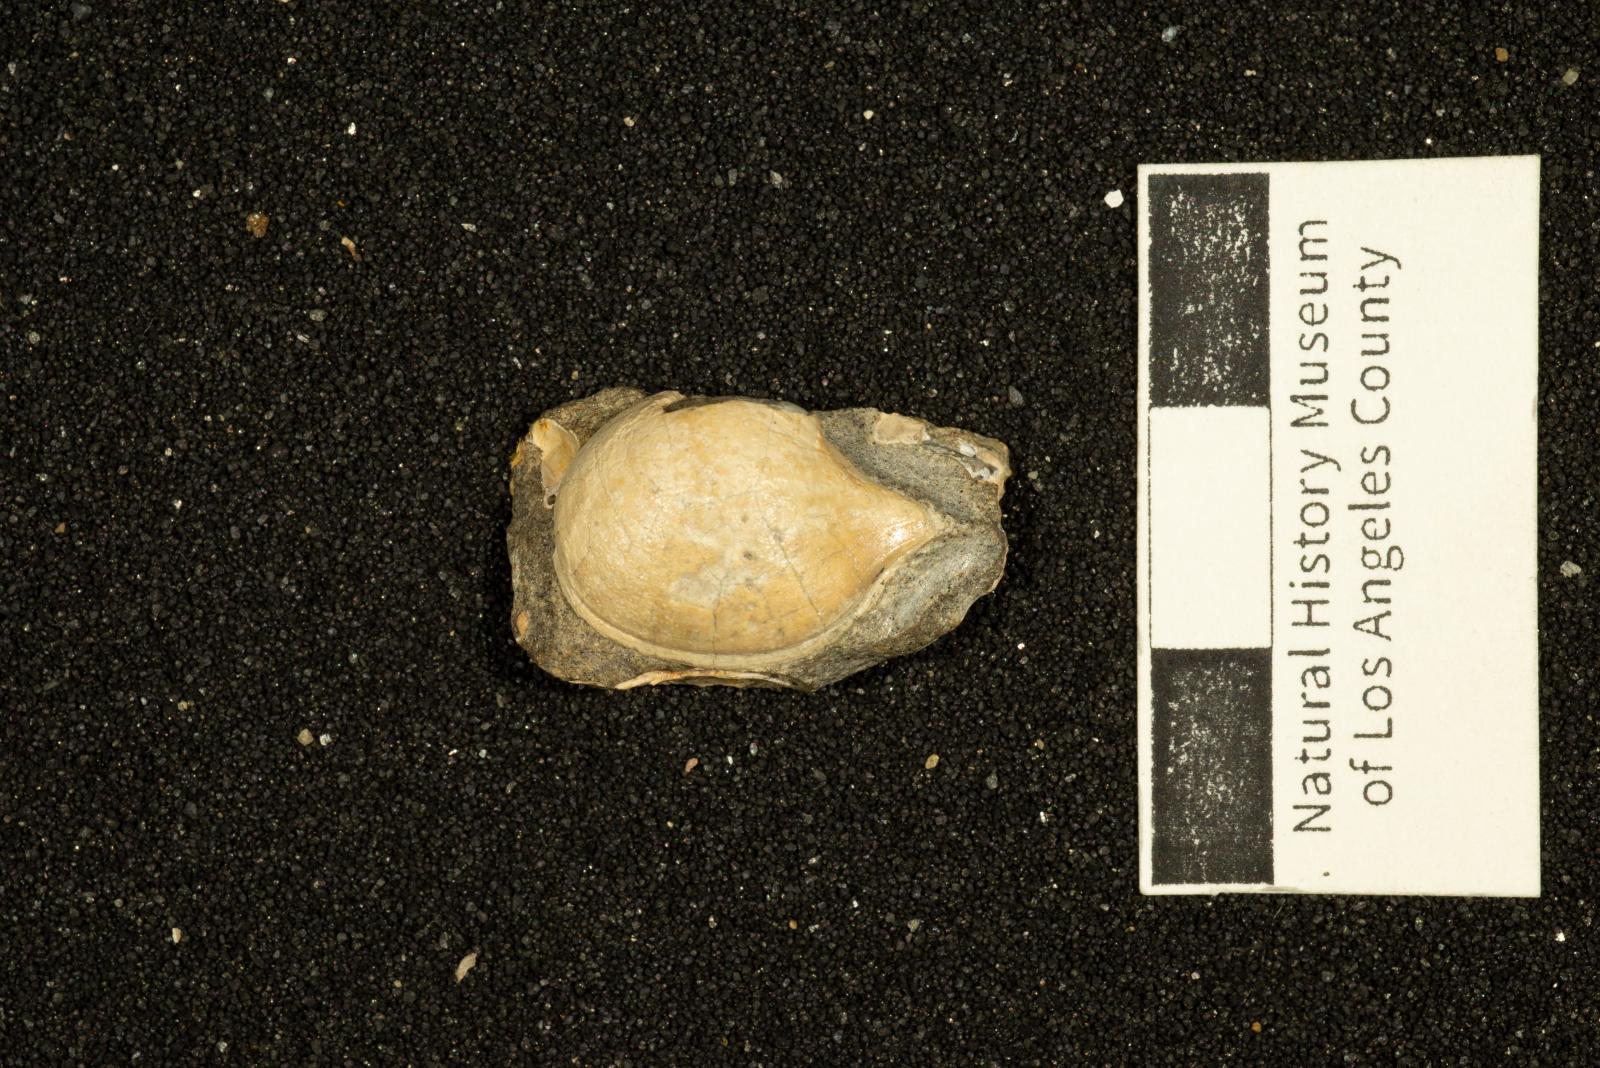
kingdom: Animalia
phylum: Mollusca
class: Bivalvia
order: Cardiida
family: Tancrediidae
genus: Meekia
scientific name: Meekia louella
